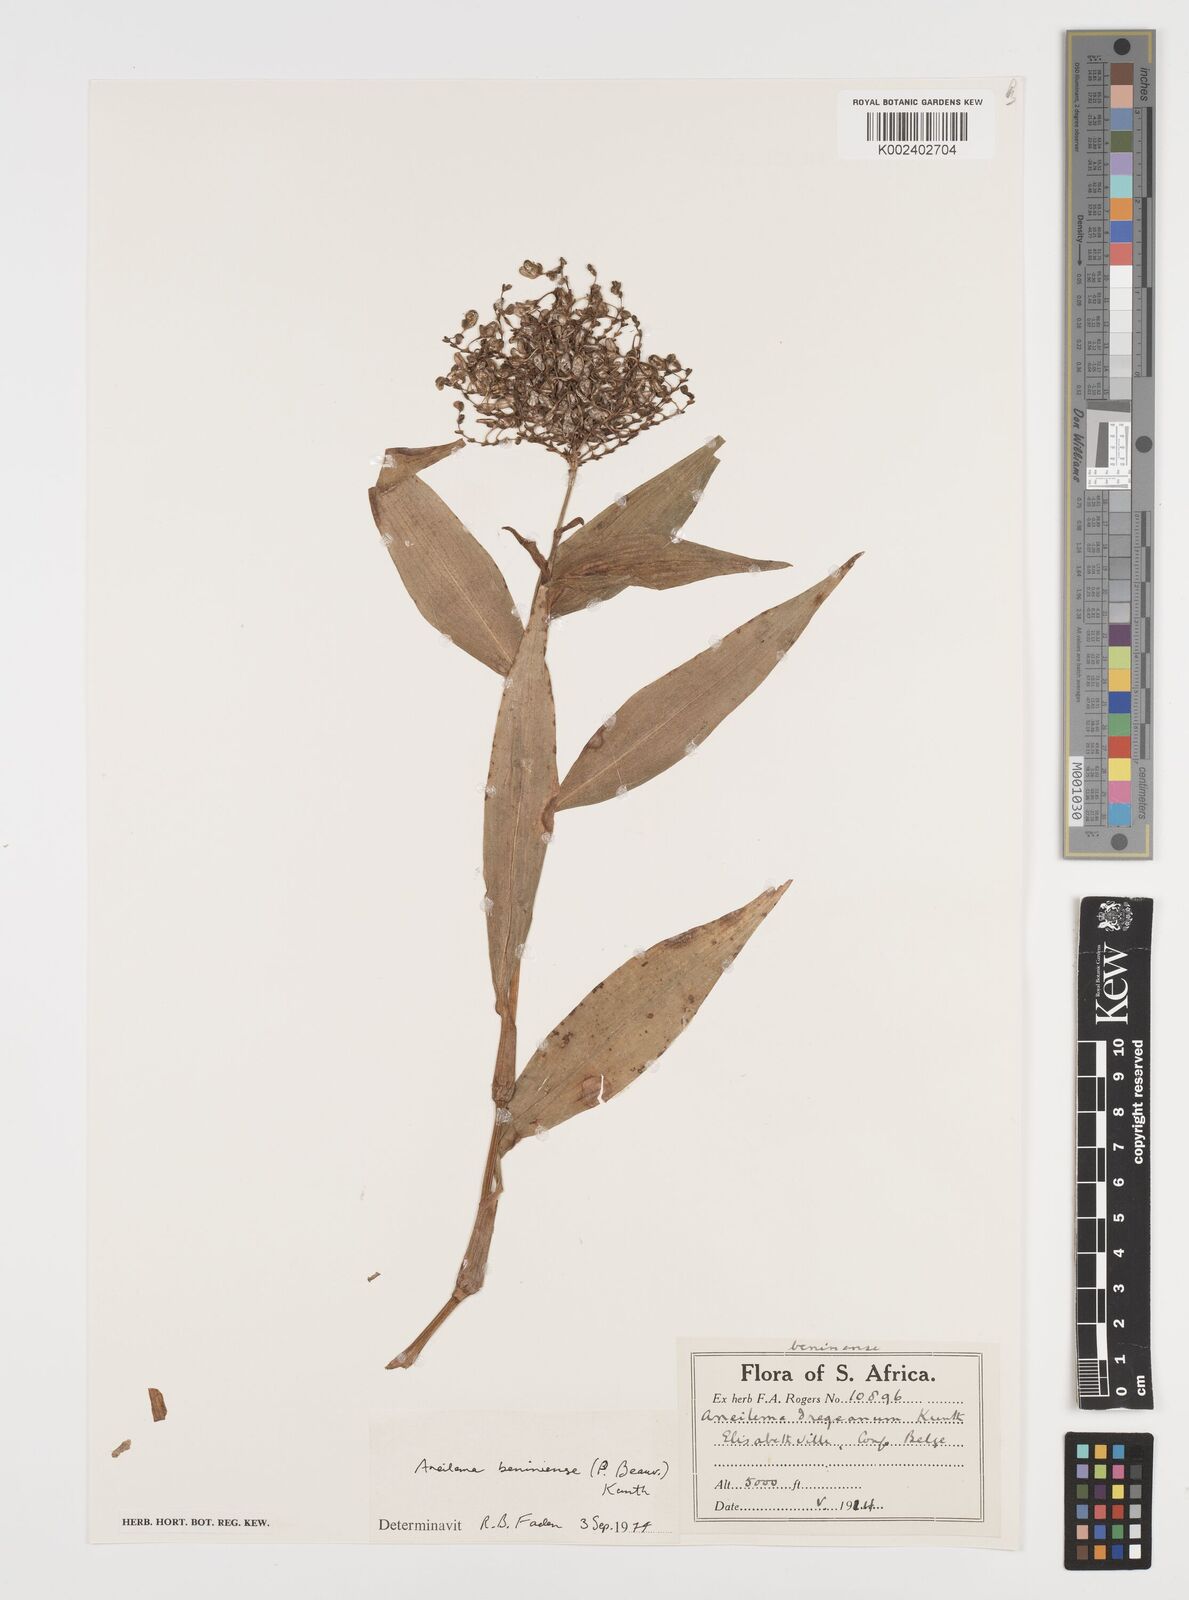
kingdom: Plantae
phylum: Tracheophyta
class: Liliopsida
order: Commelinales
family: Commelinaceae
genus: Aneilema
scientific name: Aneilema beniniense
